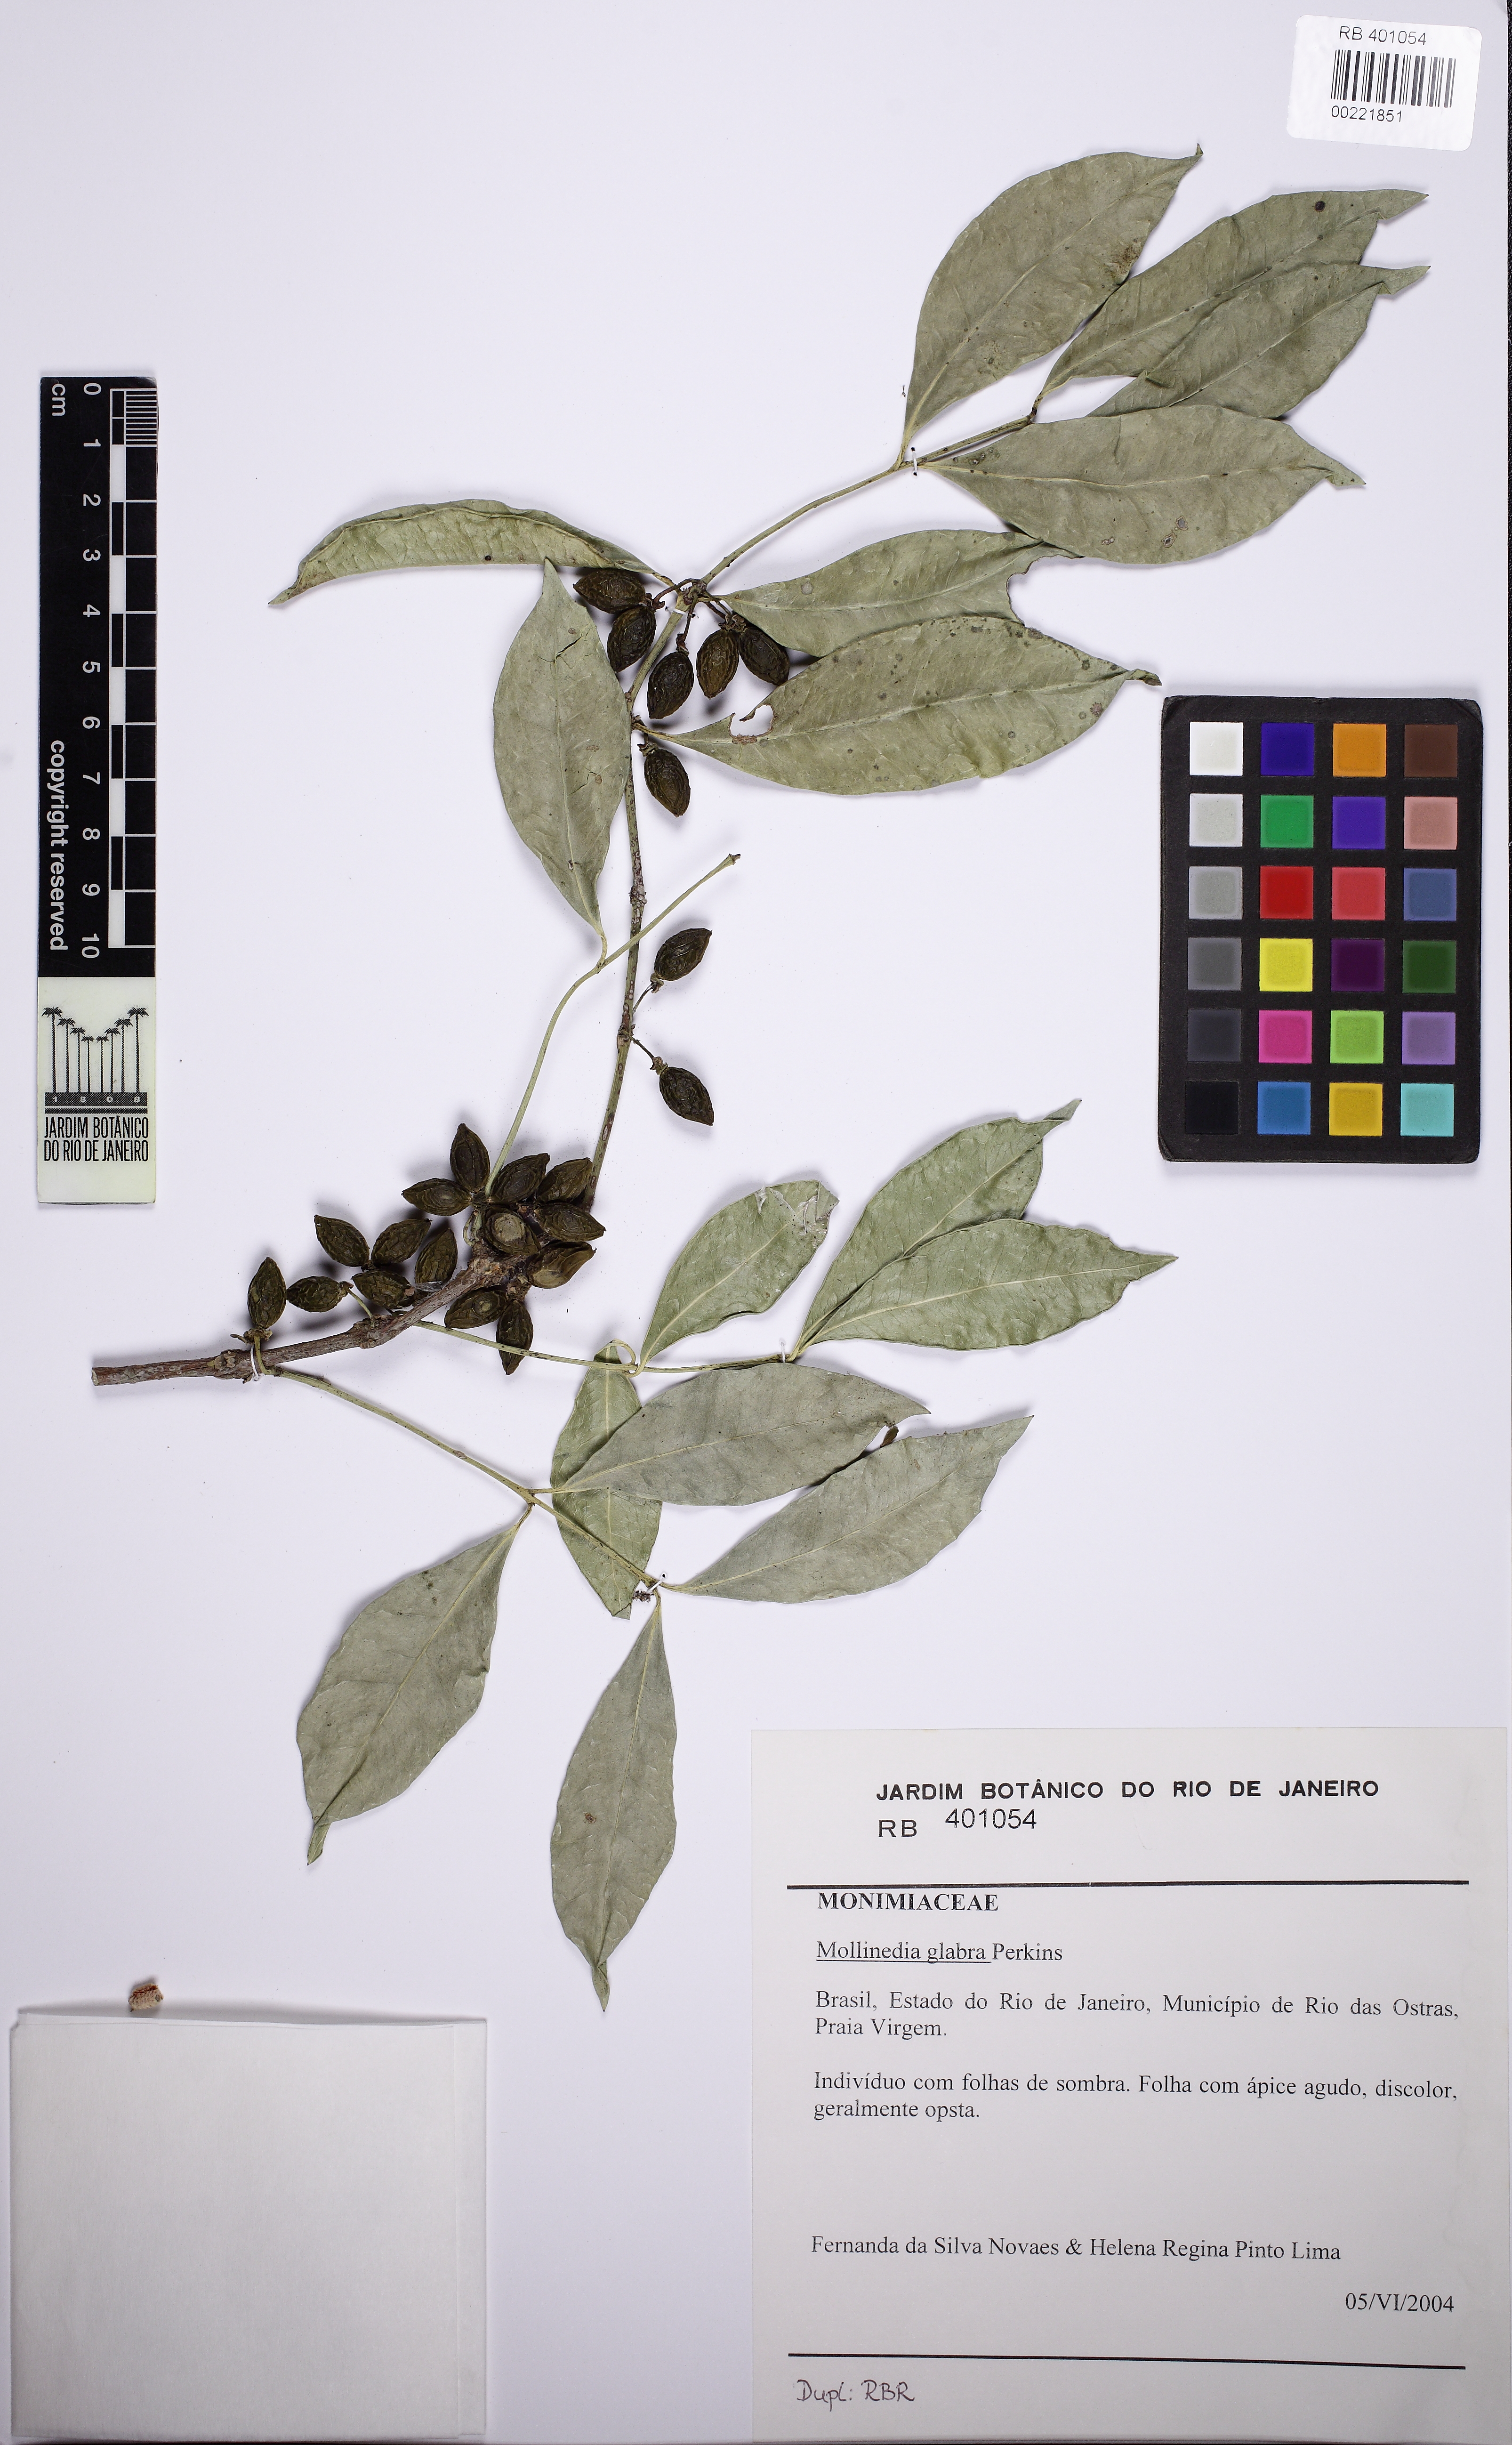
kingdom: Plantae
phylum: Tracheophyta
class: Magnoliopsida
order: Laurales
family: Monimiaceae
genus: Mollinedia
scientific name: Mollinedia glabra
